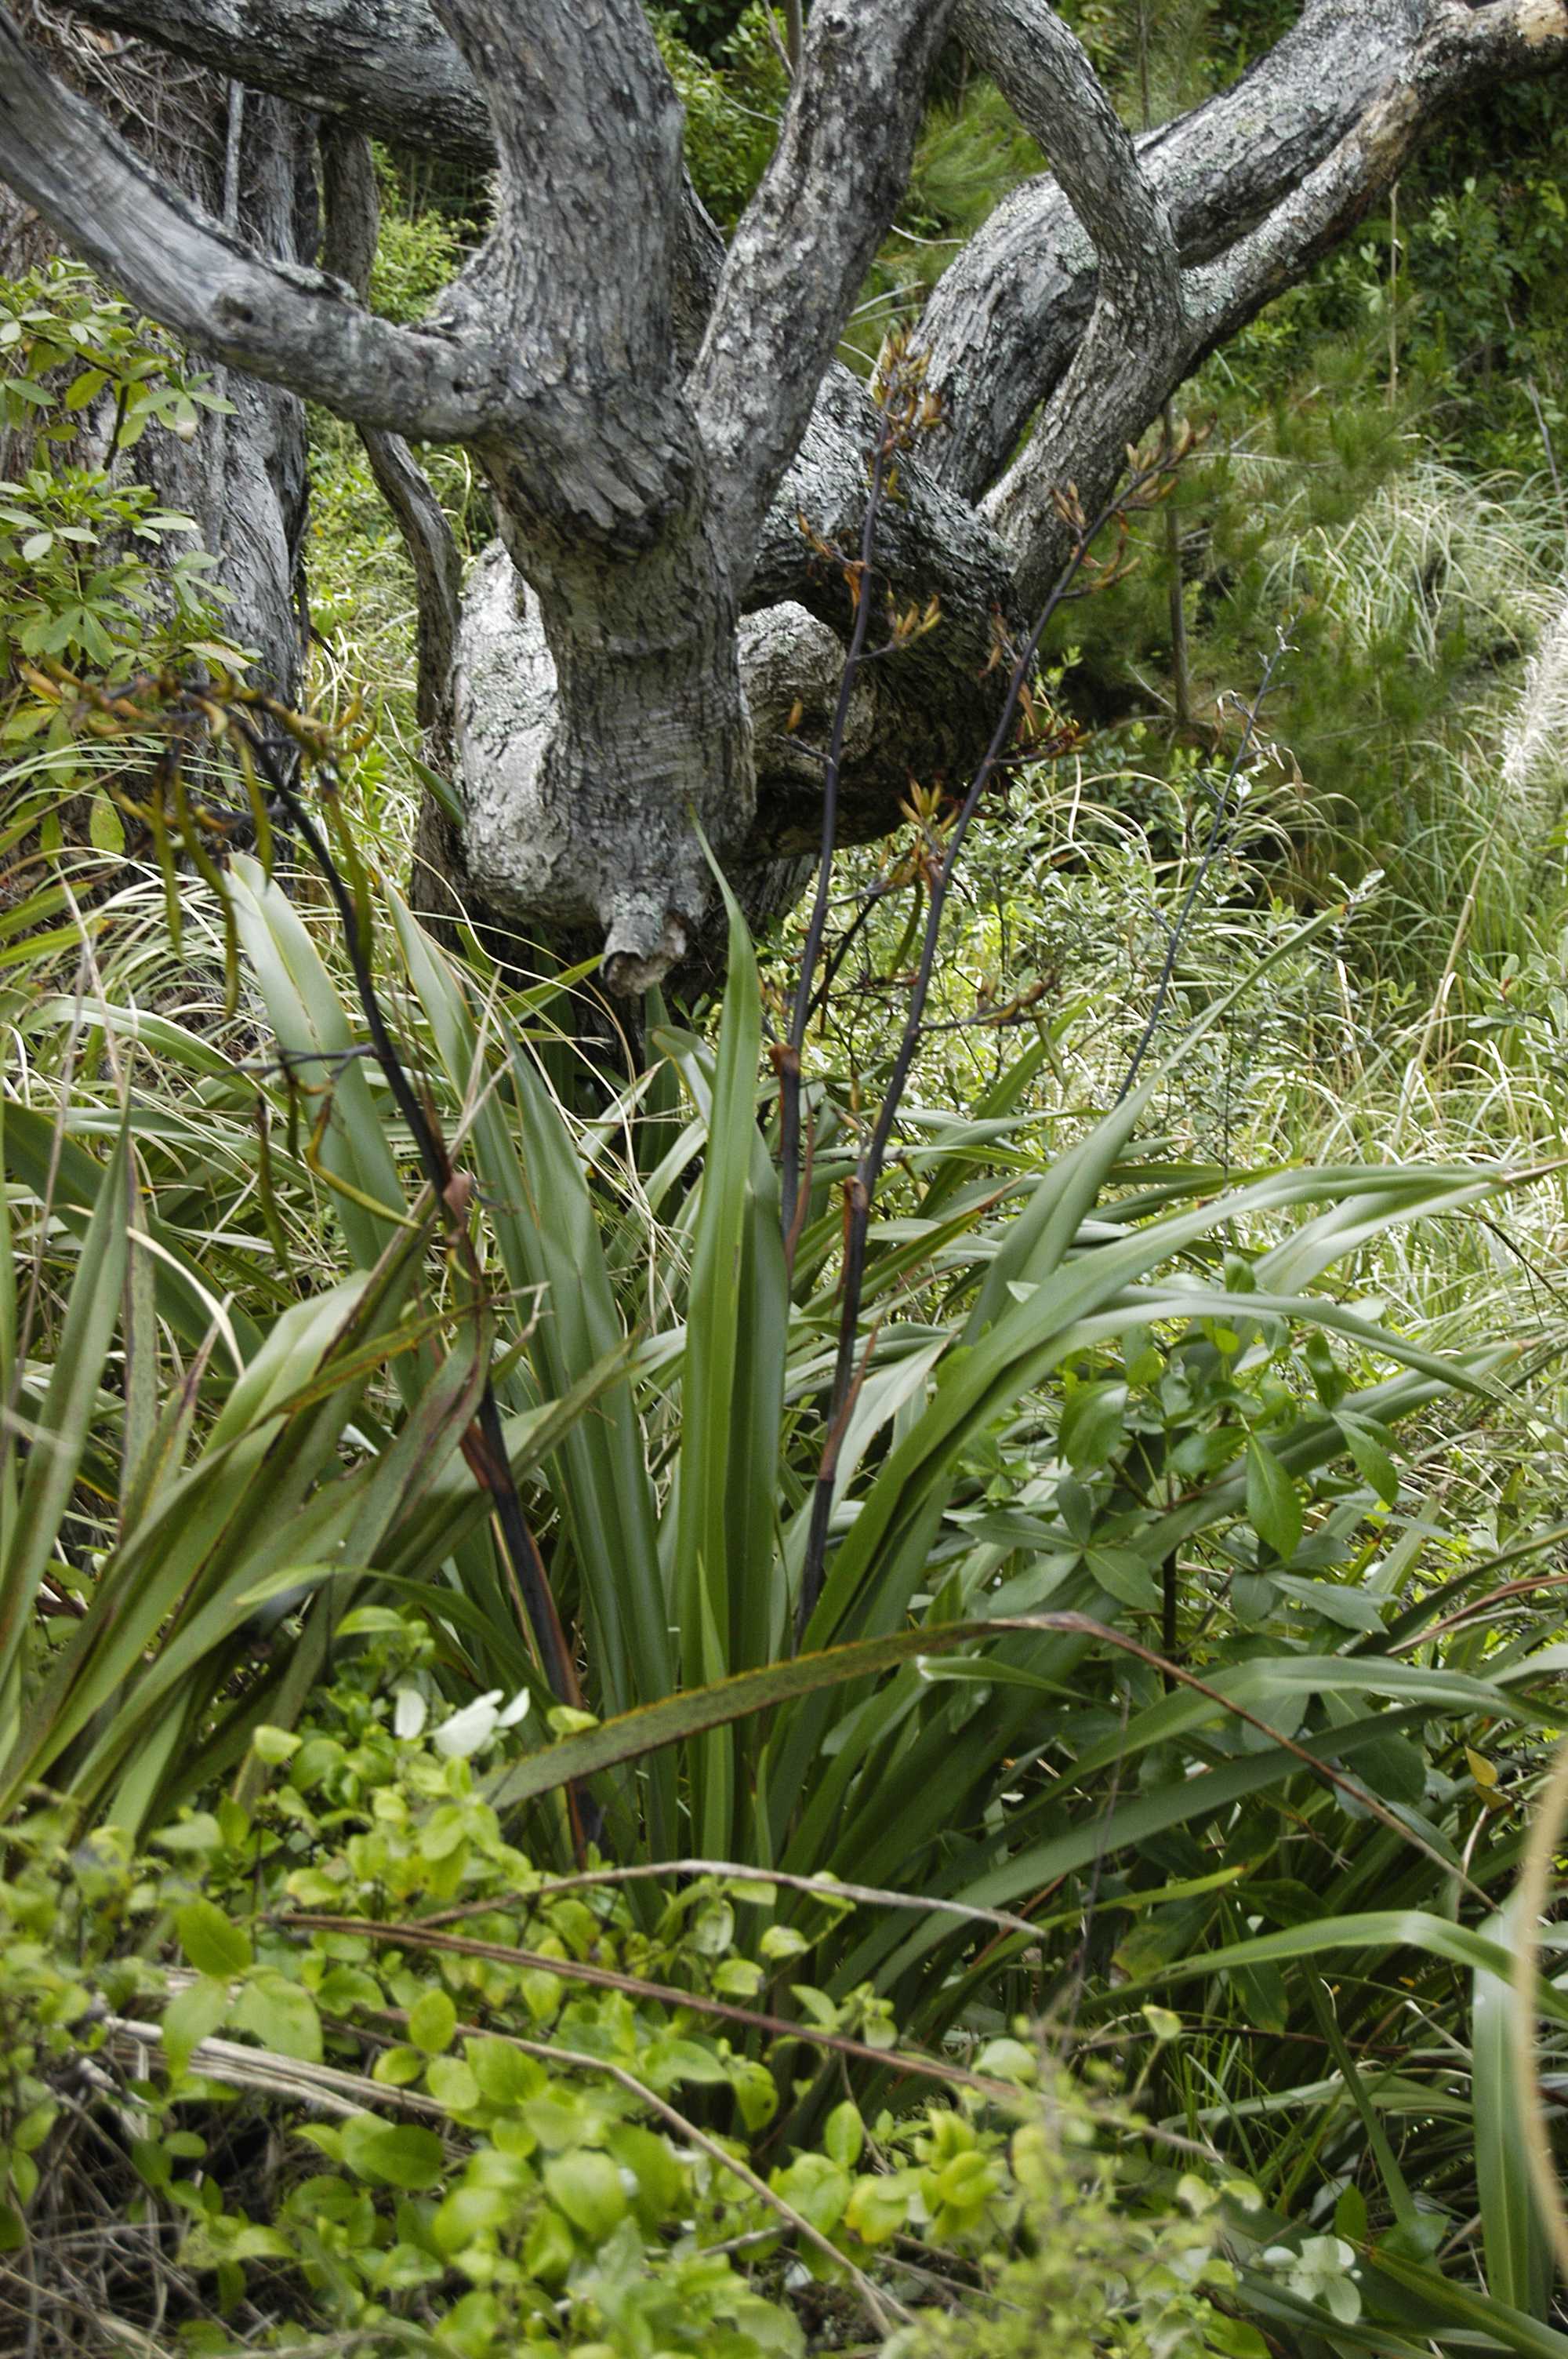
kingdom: Plantae
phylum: Tracheophyta
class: Liliopsida
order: Asparagales
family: Asphodelaceae
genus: Phormium
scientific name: Phormium colensoi
